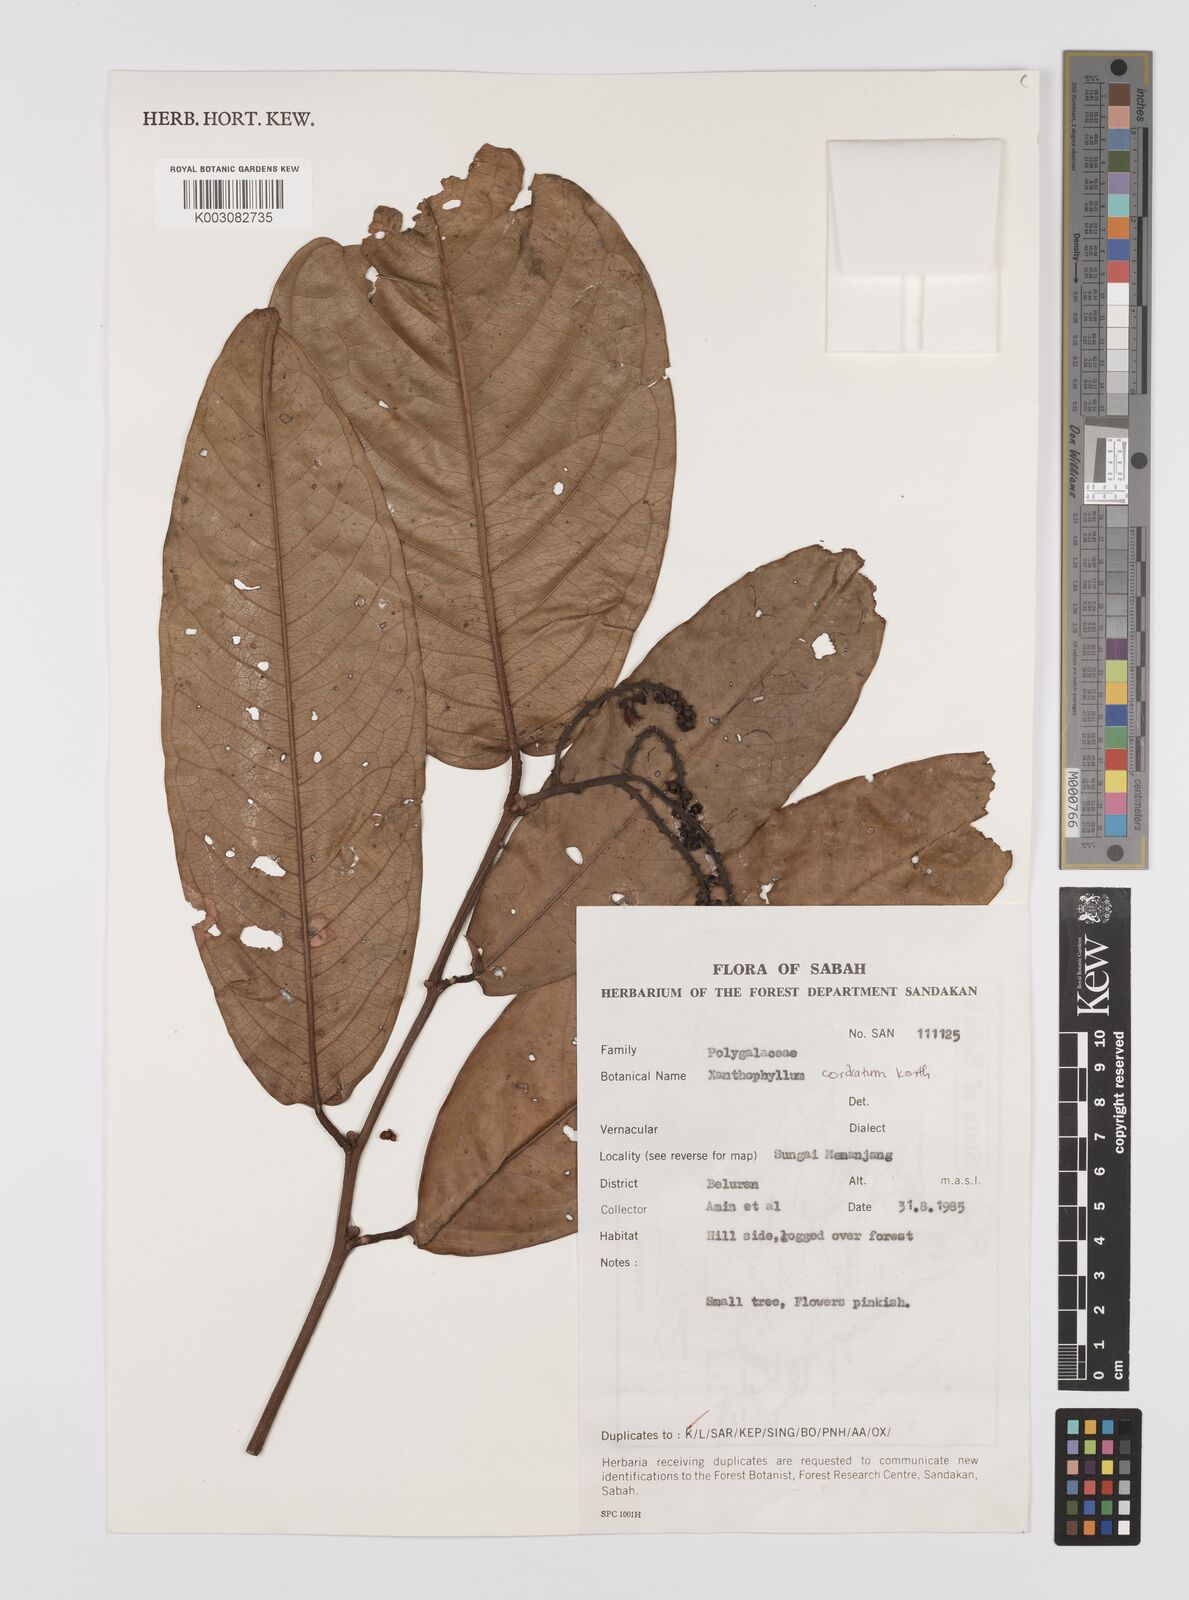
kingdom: Plantae
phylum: Tracheophyta
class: Magnoliopsida
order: Fabales
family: Polygalaceae
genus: Xanthophyllum
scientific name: Xanthophyllum adenotus
